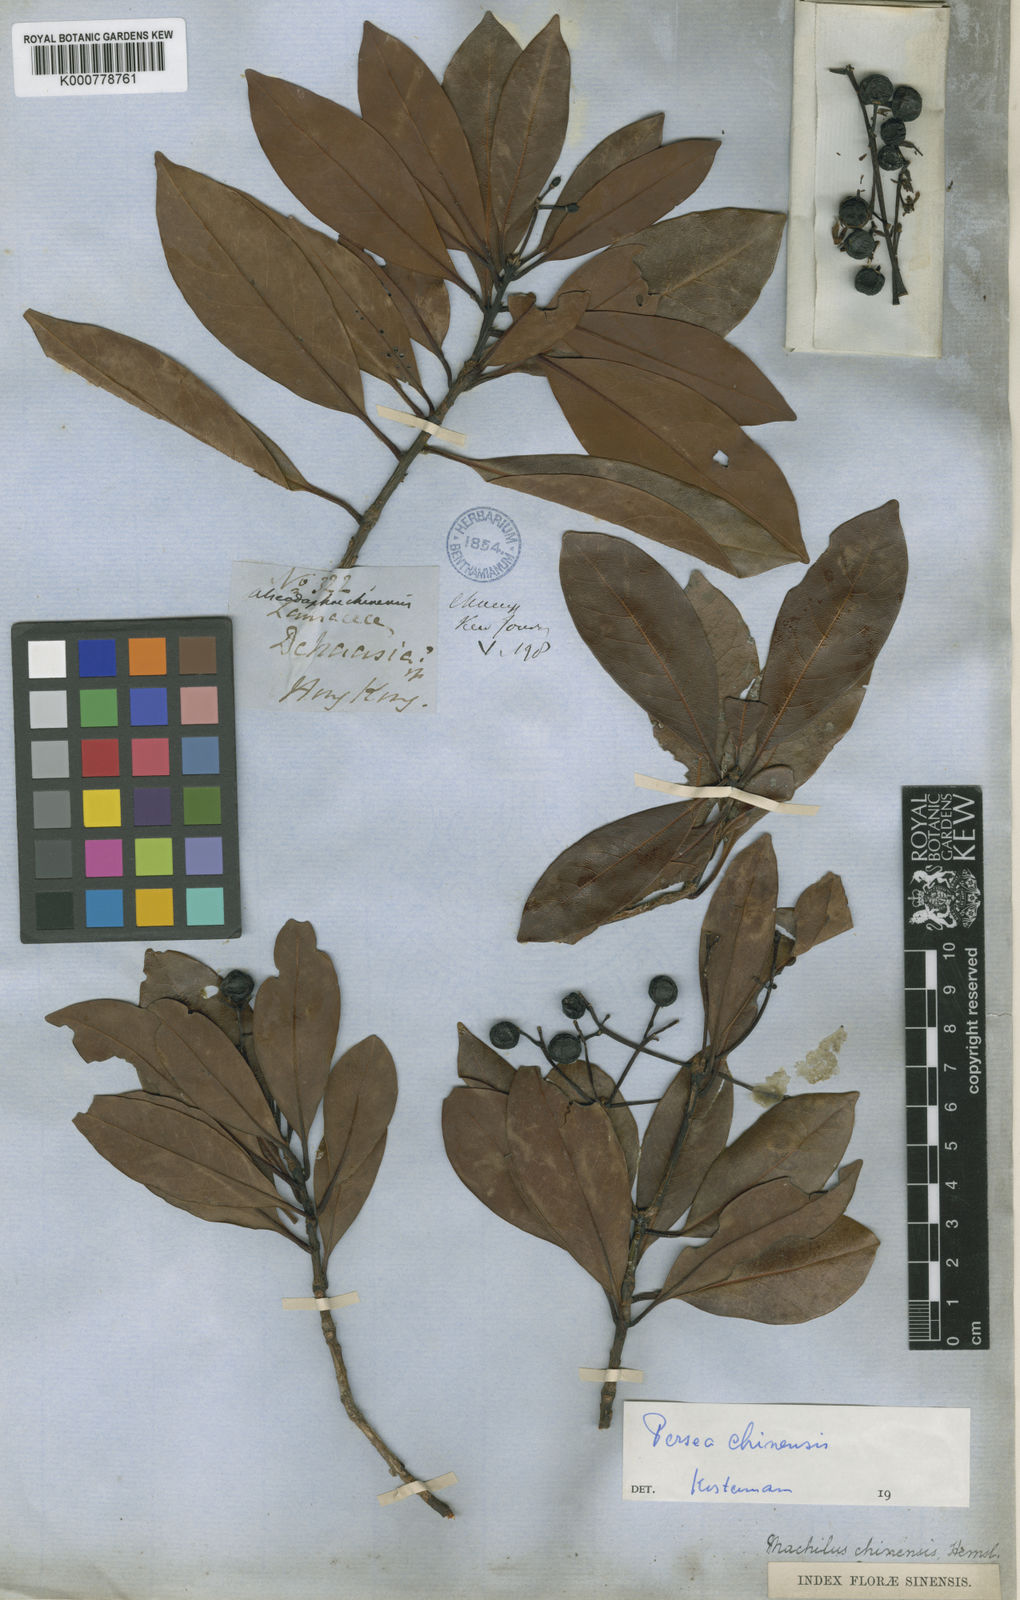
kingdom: Plantae
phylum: Tracheophyta
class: Magnoliopsida
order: Laurales
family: Lauraceae
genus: Machilus
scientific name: Machilus chienkweiensis
